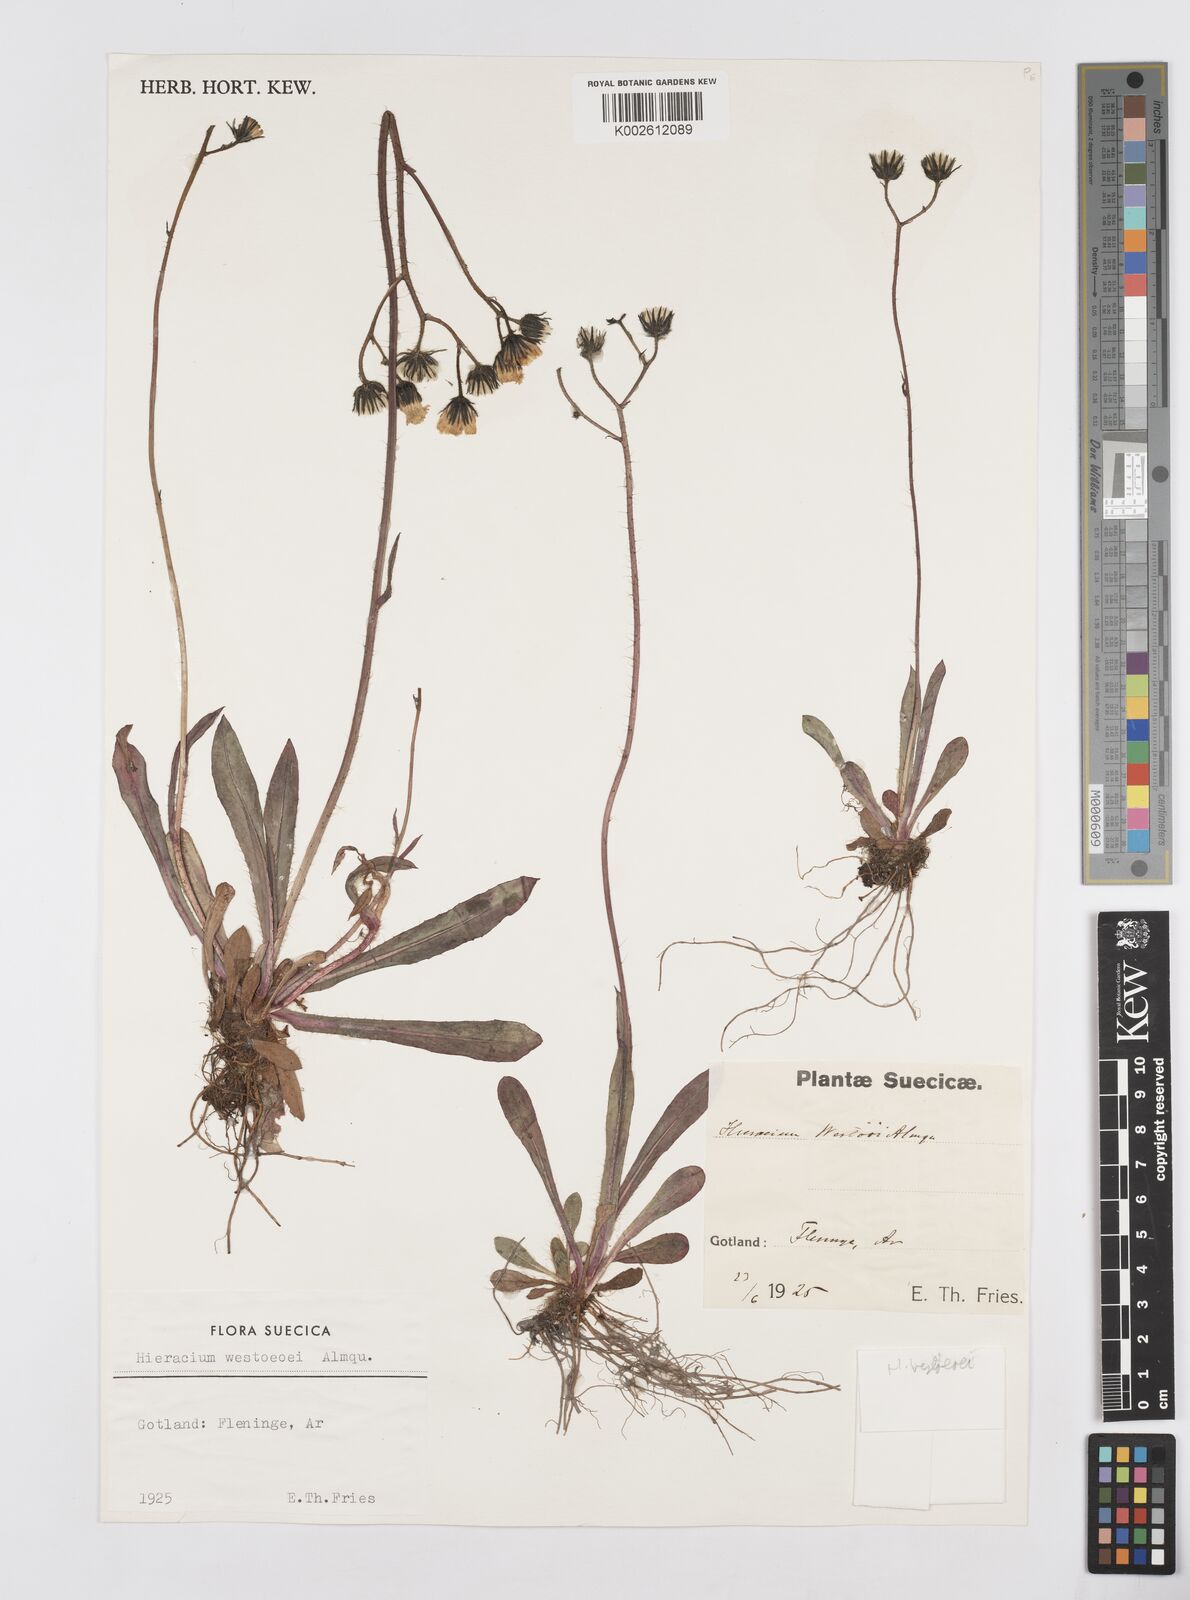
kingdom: Plantae
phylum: Tracheophyta
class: Magnoliopsida
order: Asterales
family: Asteraceae
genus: Hieracium
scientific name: Hieracium
